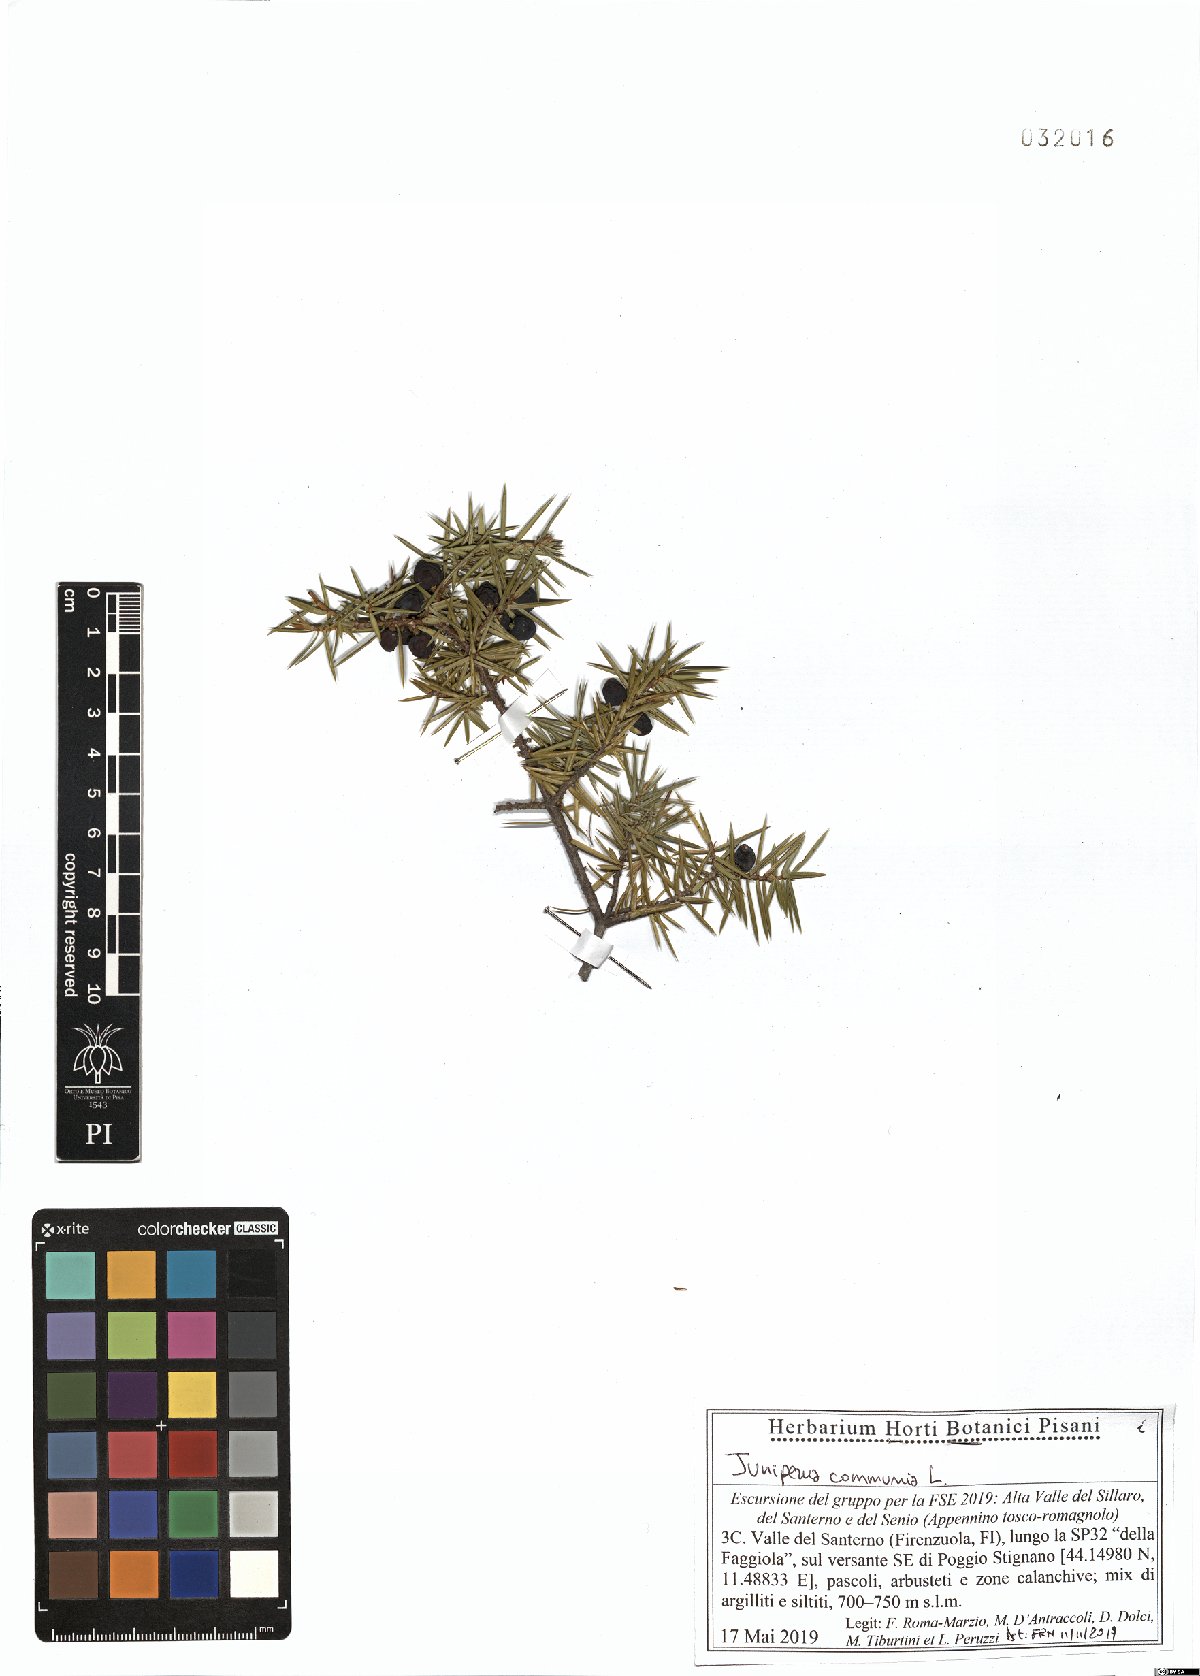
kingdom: Plantae
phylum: Tracheophyta
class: Pinopsida
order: Pinales
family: Cupressaceae
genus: Juniperus
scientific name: Juniperus communis
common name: Common juniper
